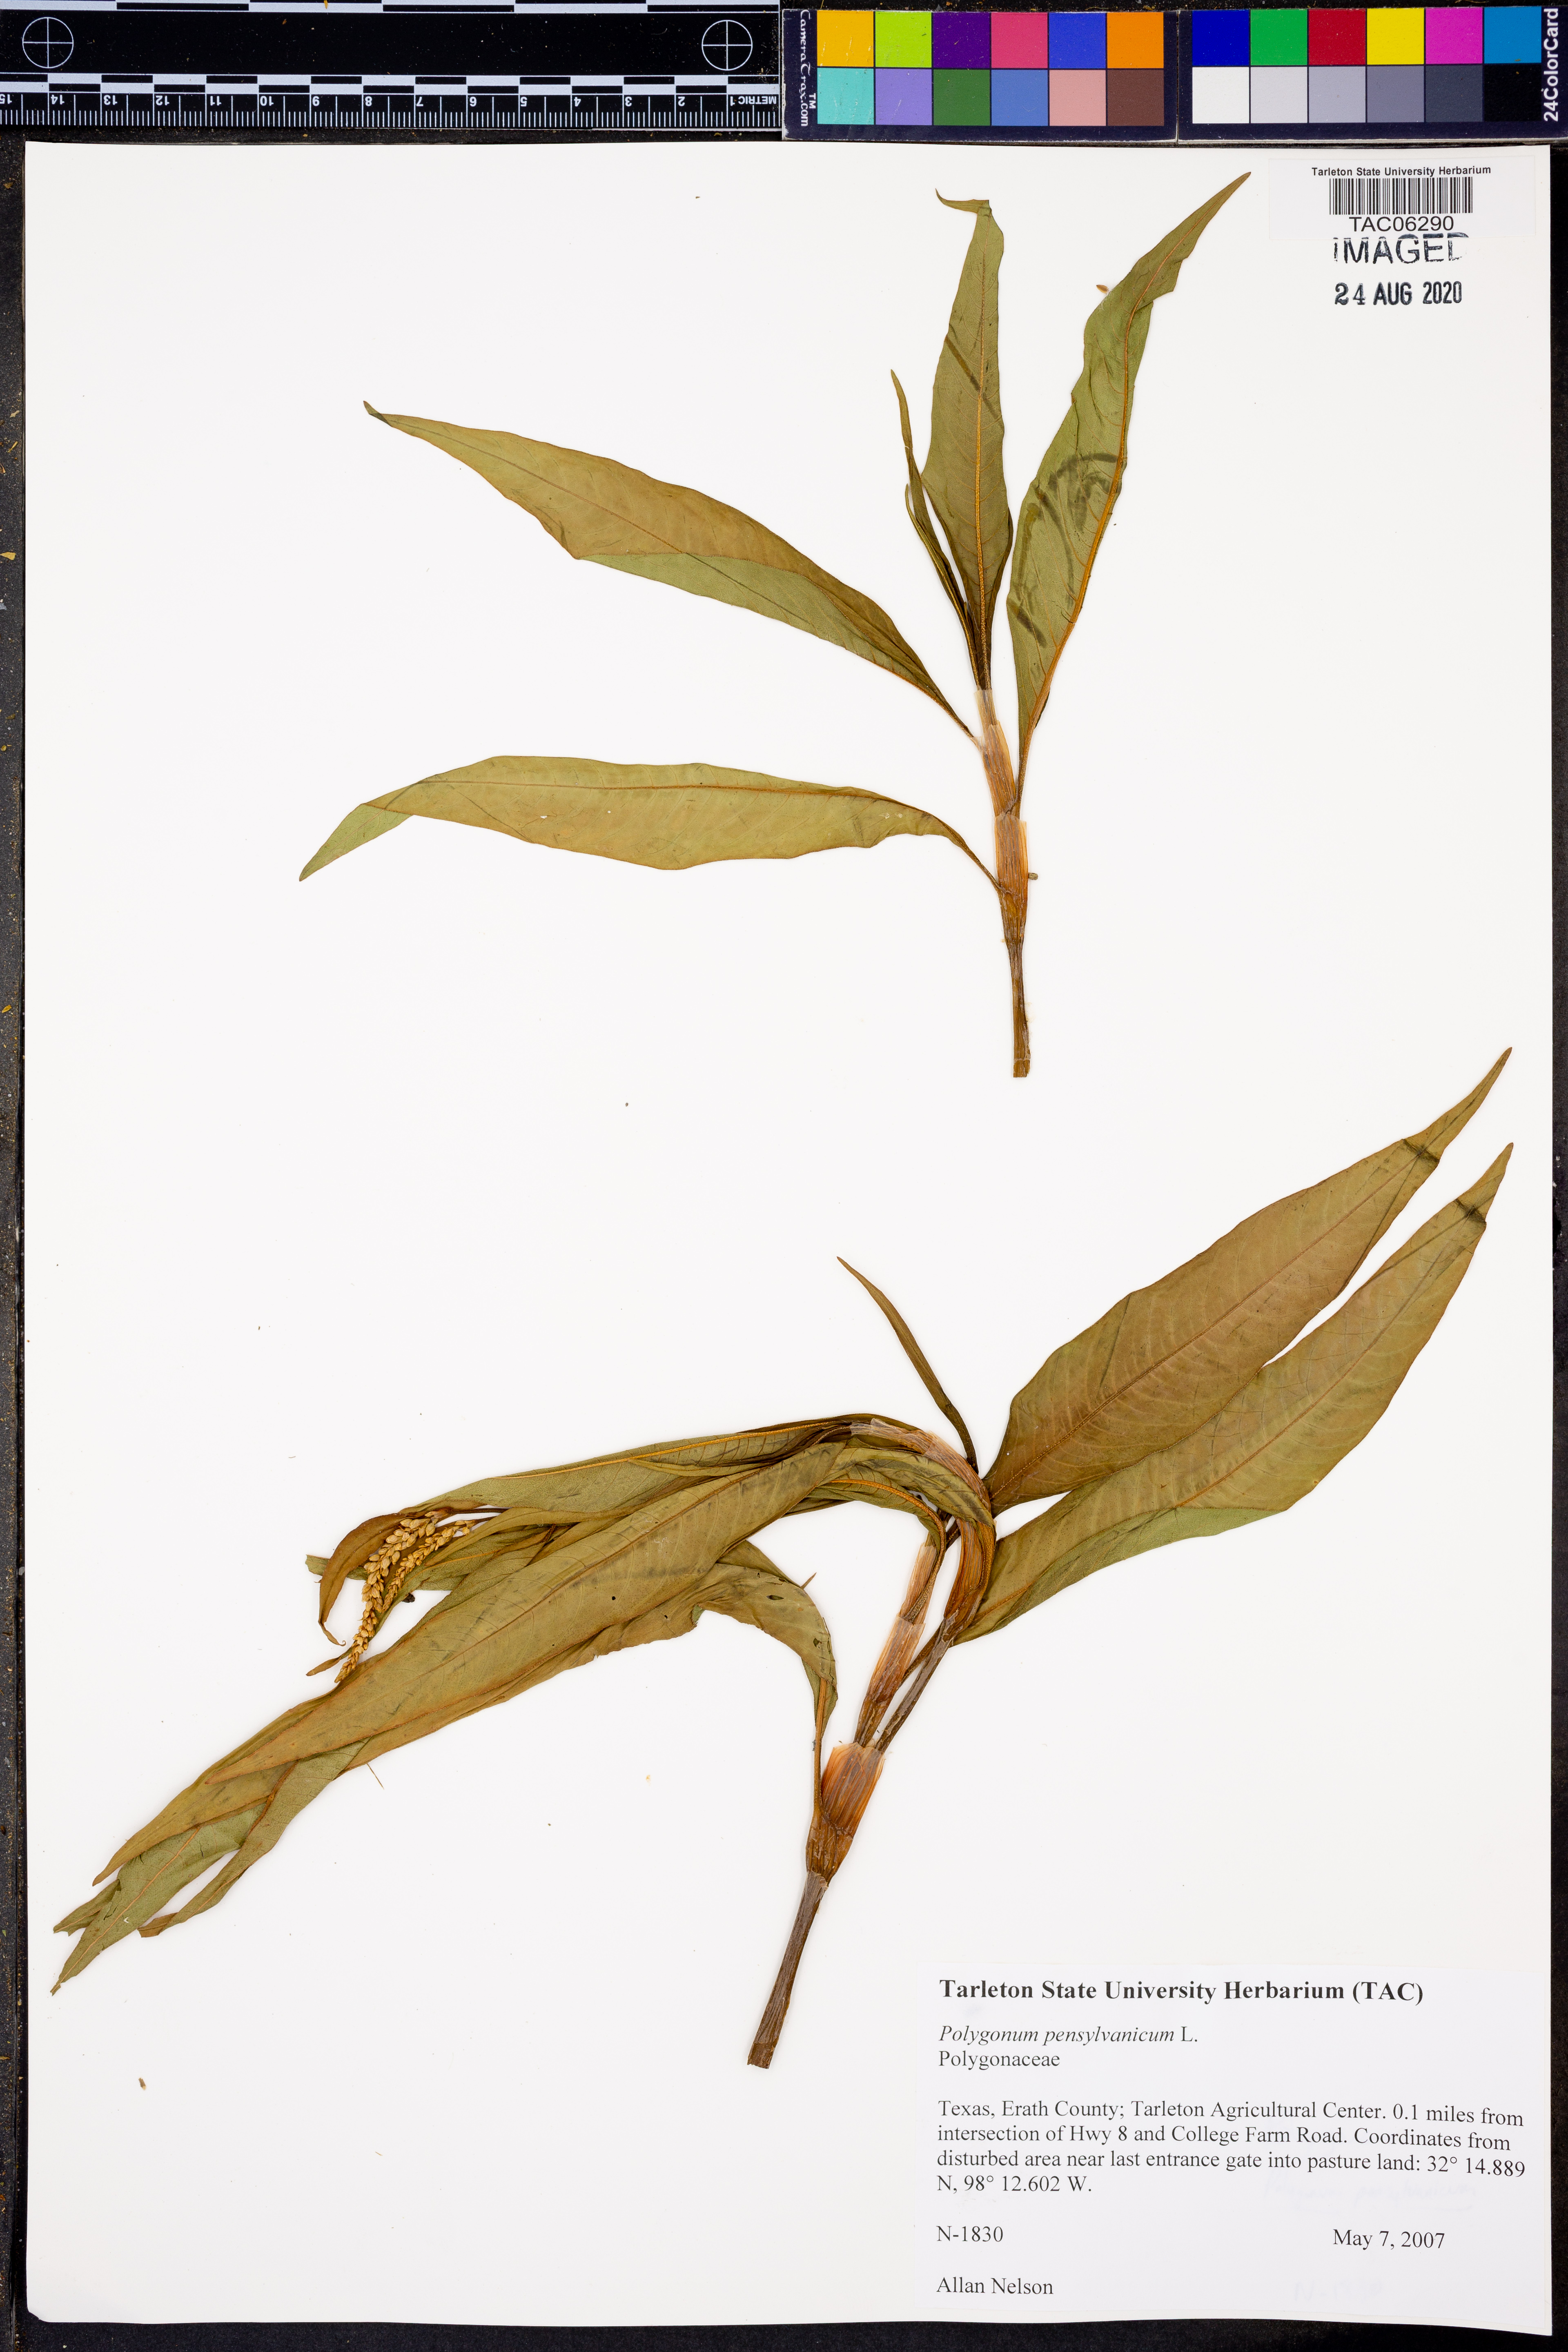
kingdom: Plantae
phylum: Tracheophyta
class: Magnoliopsida
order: Caryophyllales
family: Polygonaceae
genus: Persicaria
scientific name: Persicaria pensylvanica
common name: Pinkweed
